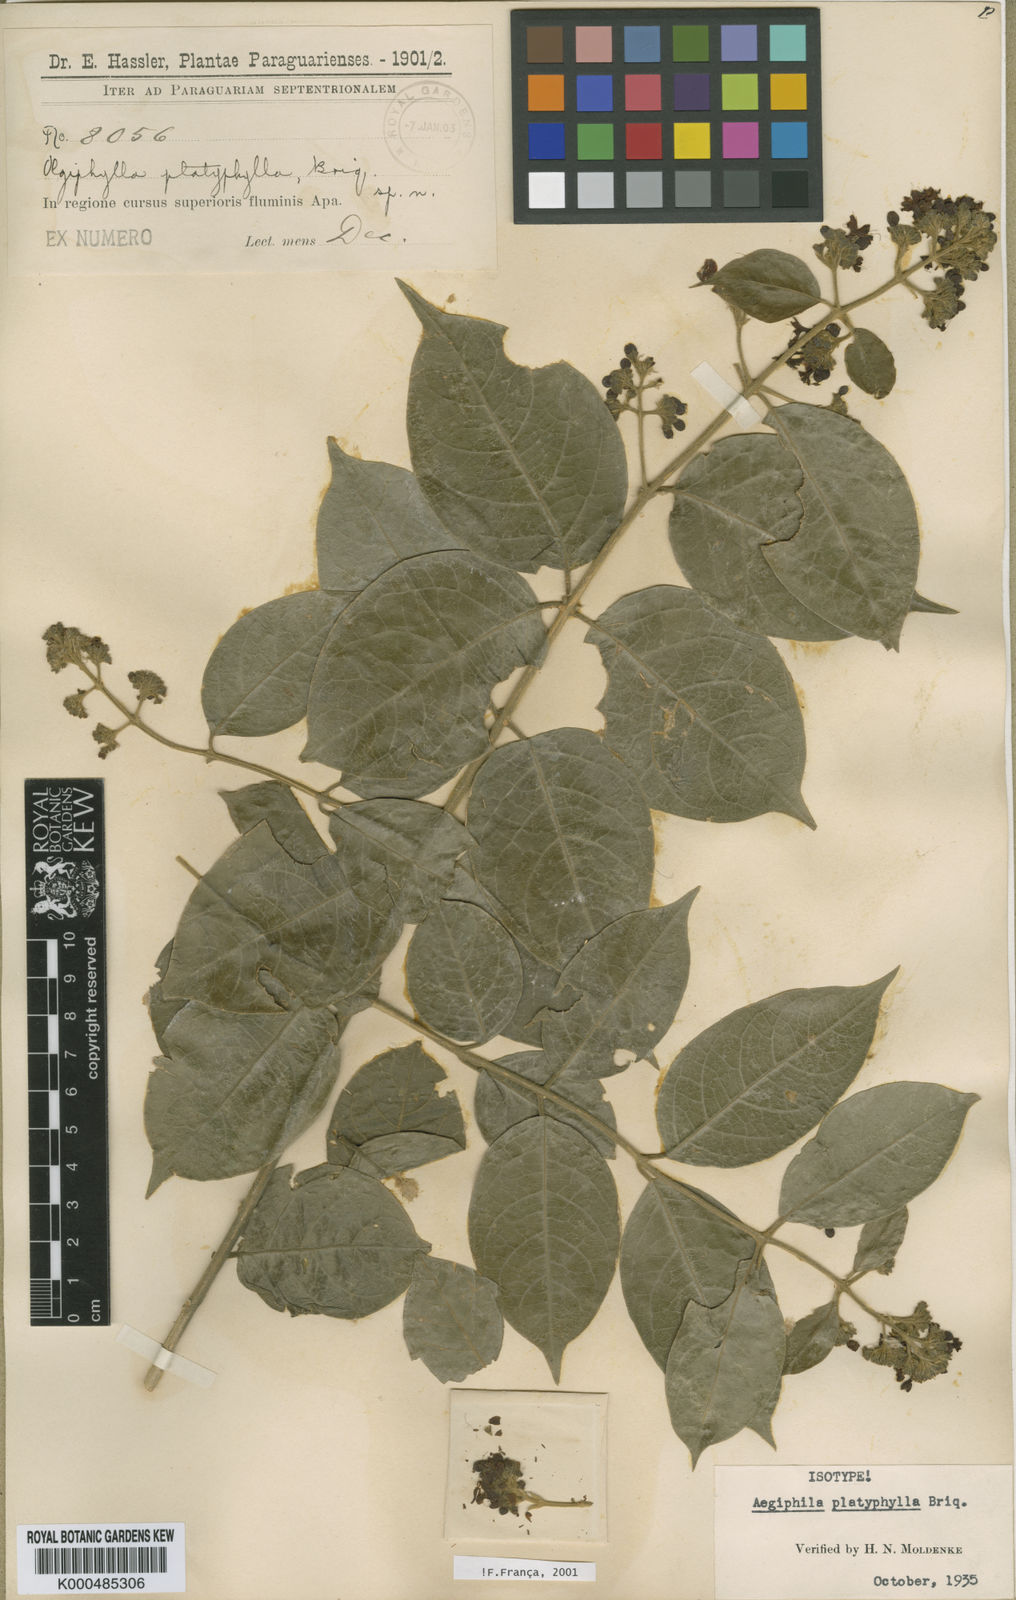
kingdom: Plantae
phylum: Tracheophyta
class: Magnoliopsida
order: Lamiales
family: Lamiaceae
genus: Aegiphila
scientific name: Aegiphila vitelliniflora
